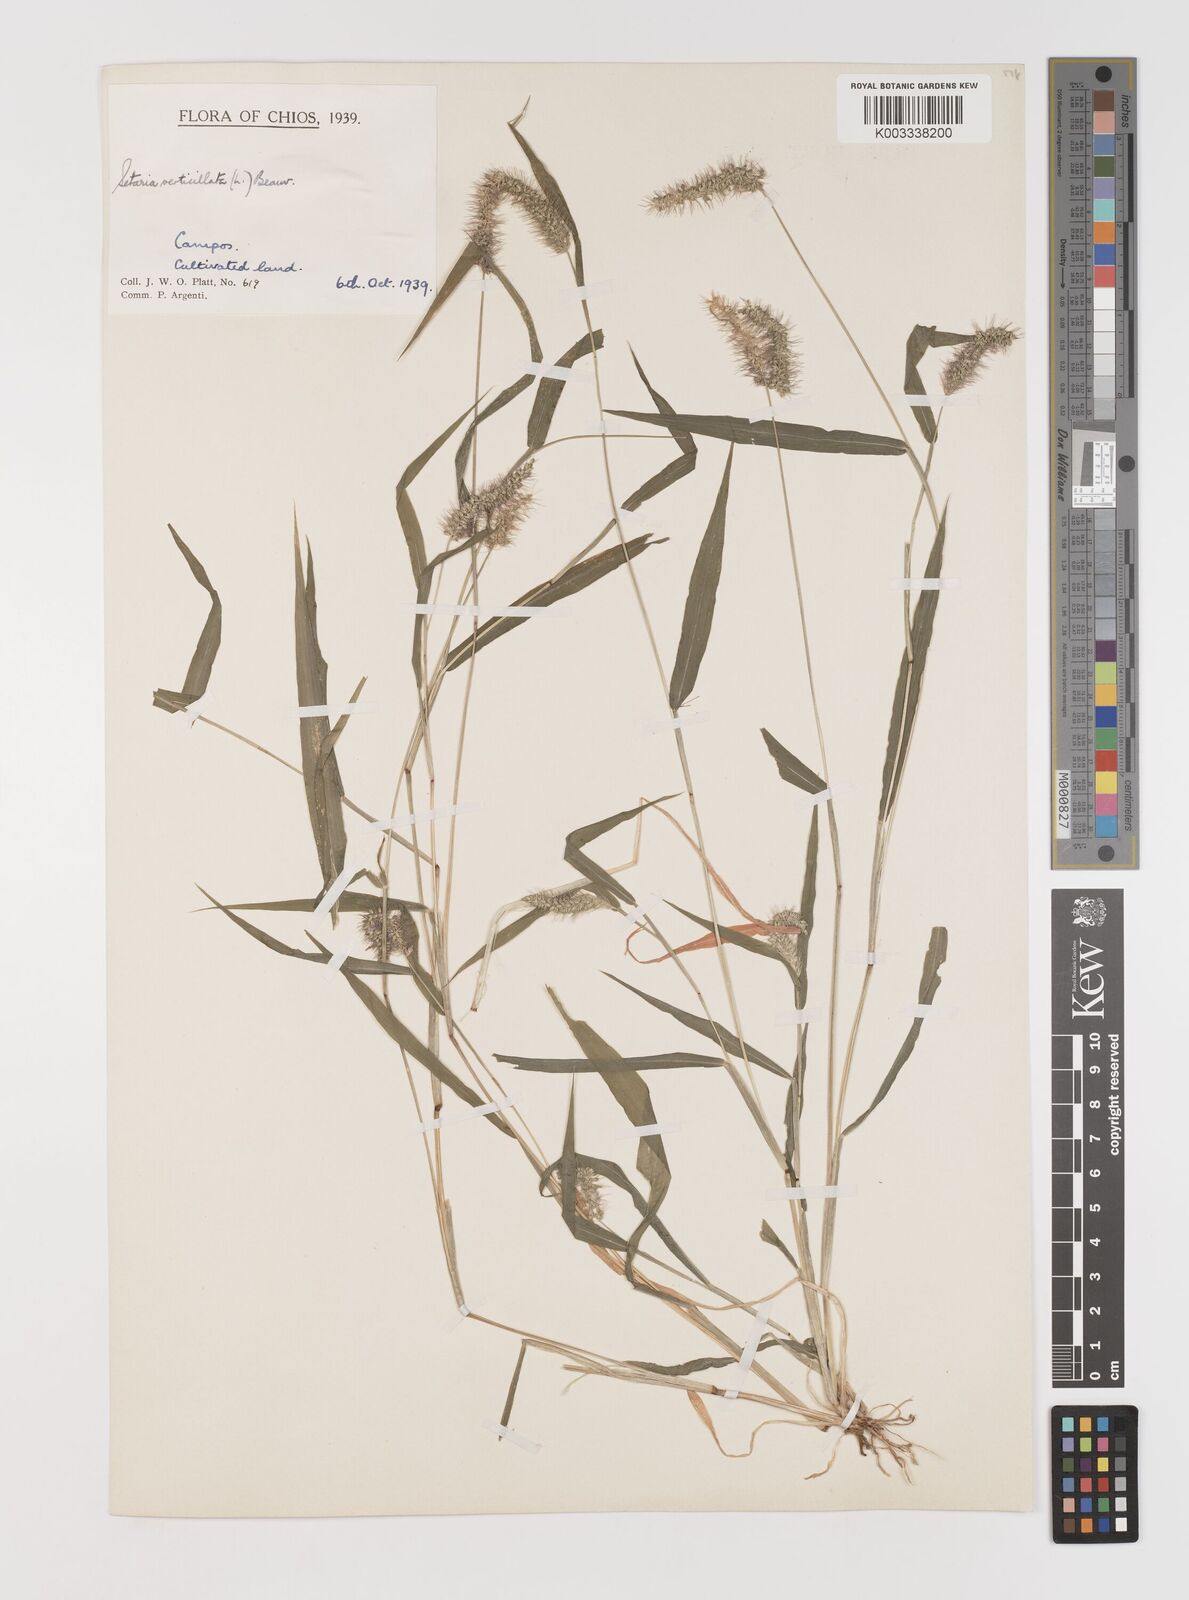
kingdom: Plantae
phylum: Tracheophyta
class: Liliopsida
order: Poales
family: Poaceae
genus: Setaria
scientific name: Setaria verticillata
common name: Hooked bristlegrass
